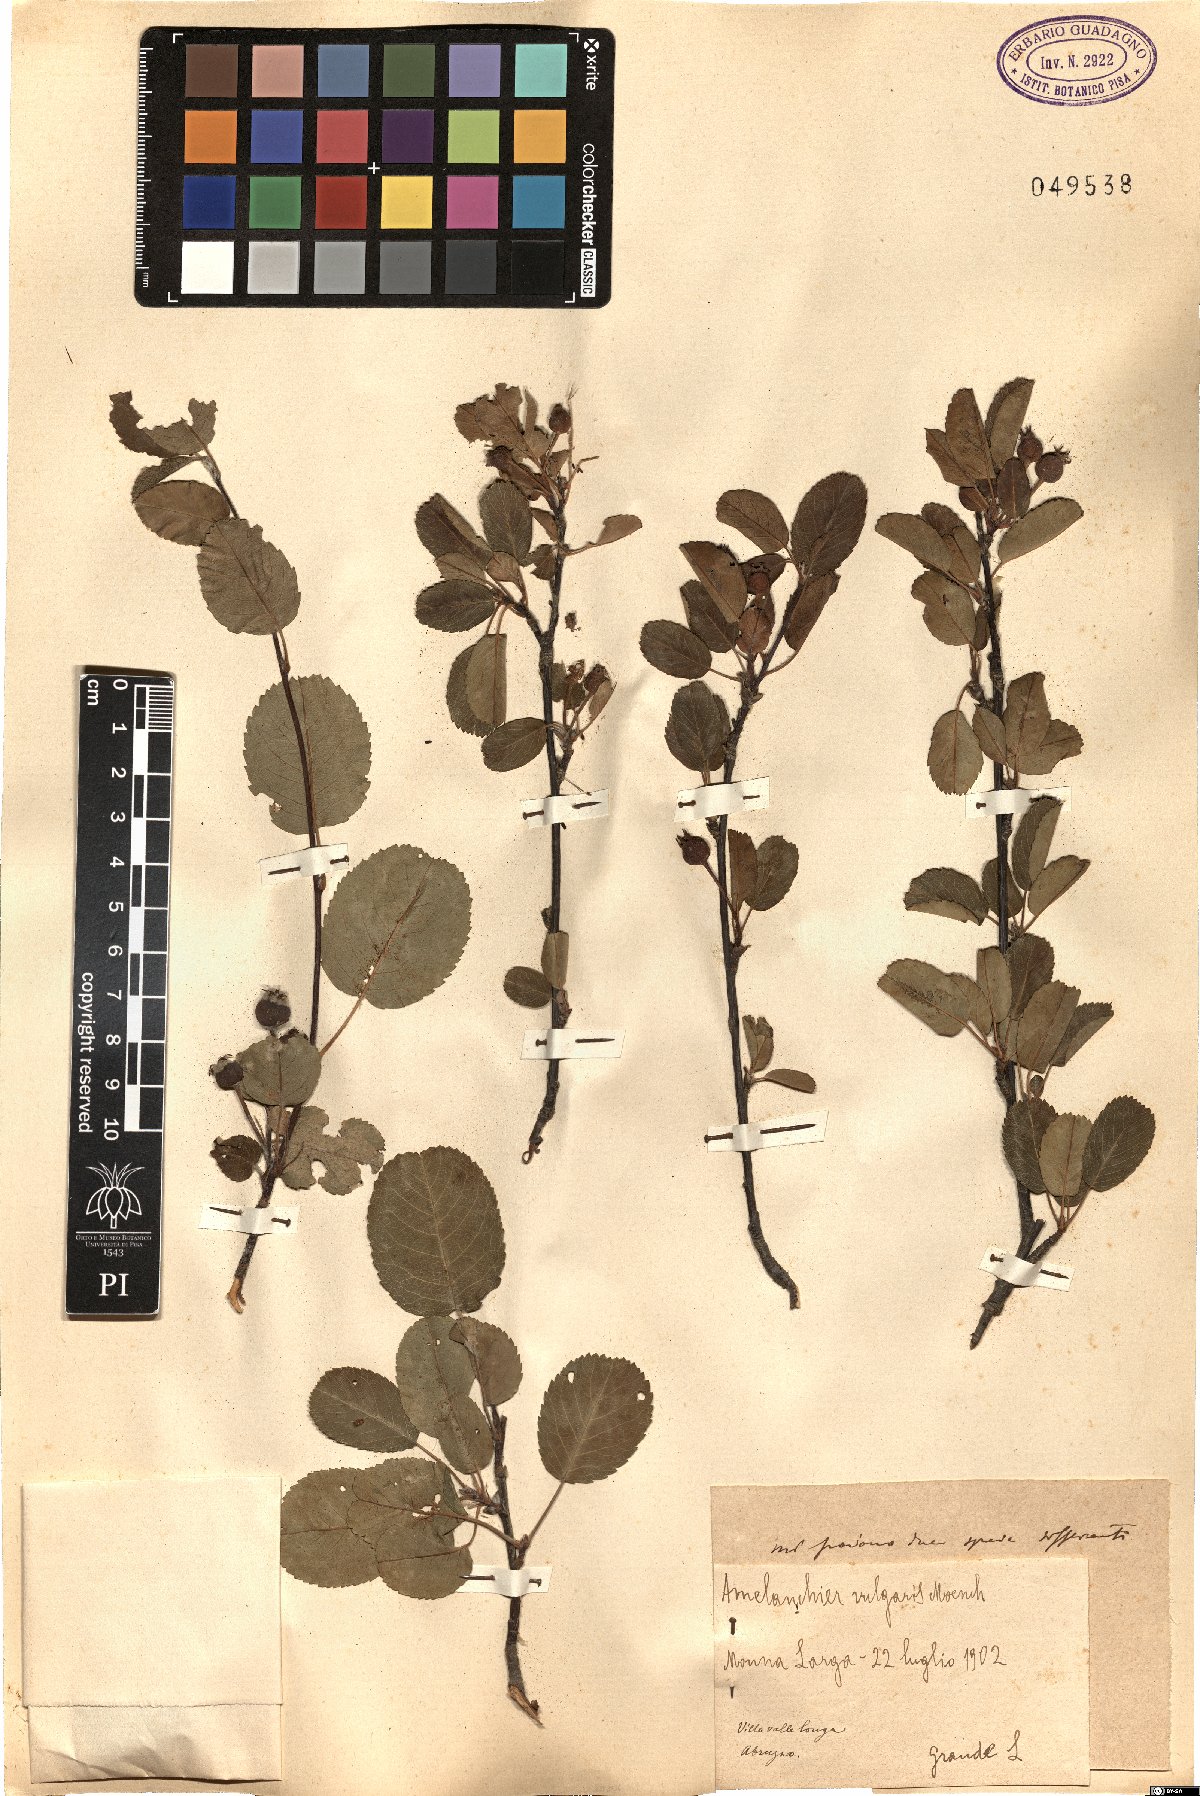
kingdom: Plantae
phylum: Tracheophyta
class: Magnoliopsida
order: Rosales
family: Rosaceae
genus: Amelanchier
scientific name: Amelanchier ovalis
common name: Serviceberry
